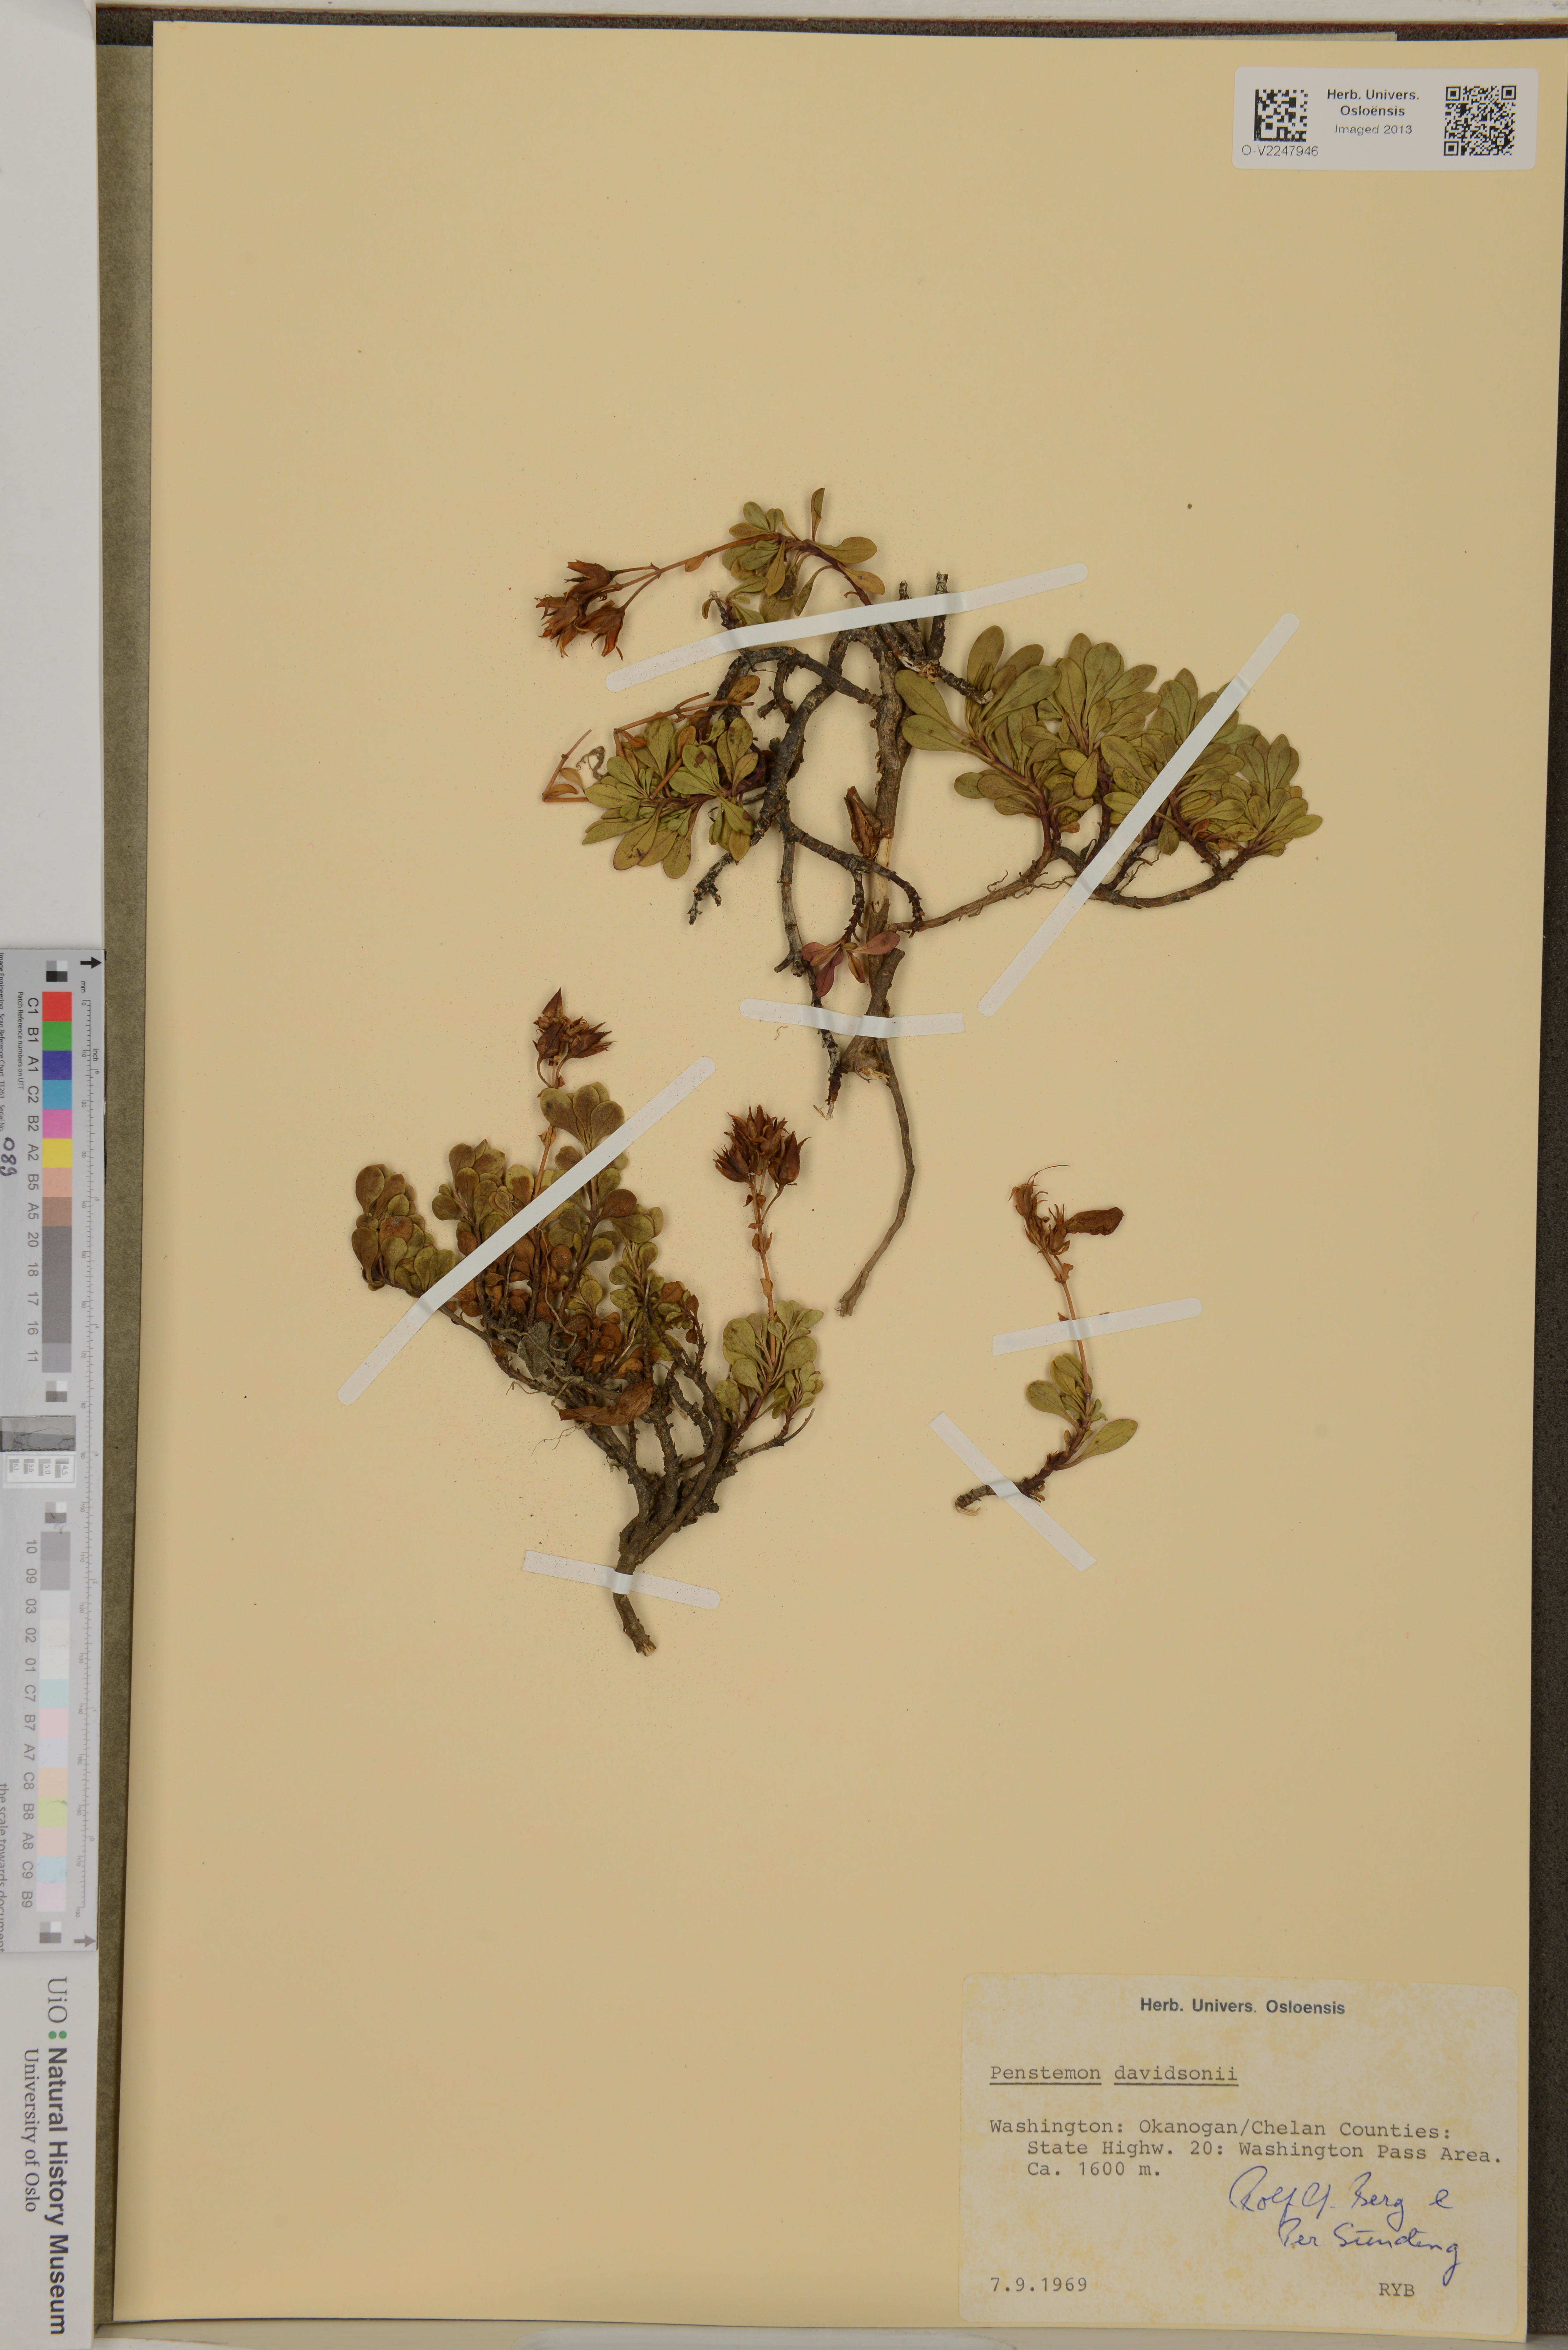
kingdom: Plantae
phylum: Tracheophyta
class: Magnoliopsida
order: Lamiales
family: Plantaginaceae
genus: Penstemon
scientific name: Penstemon davidsonii
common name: Davidson's penstemon
